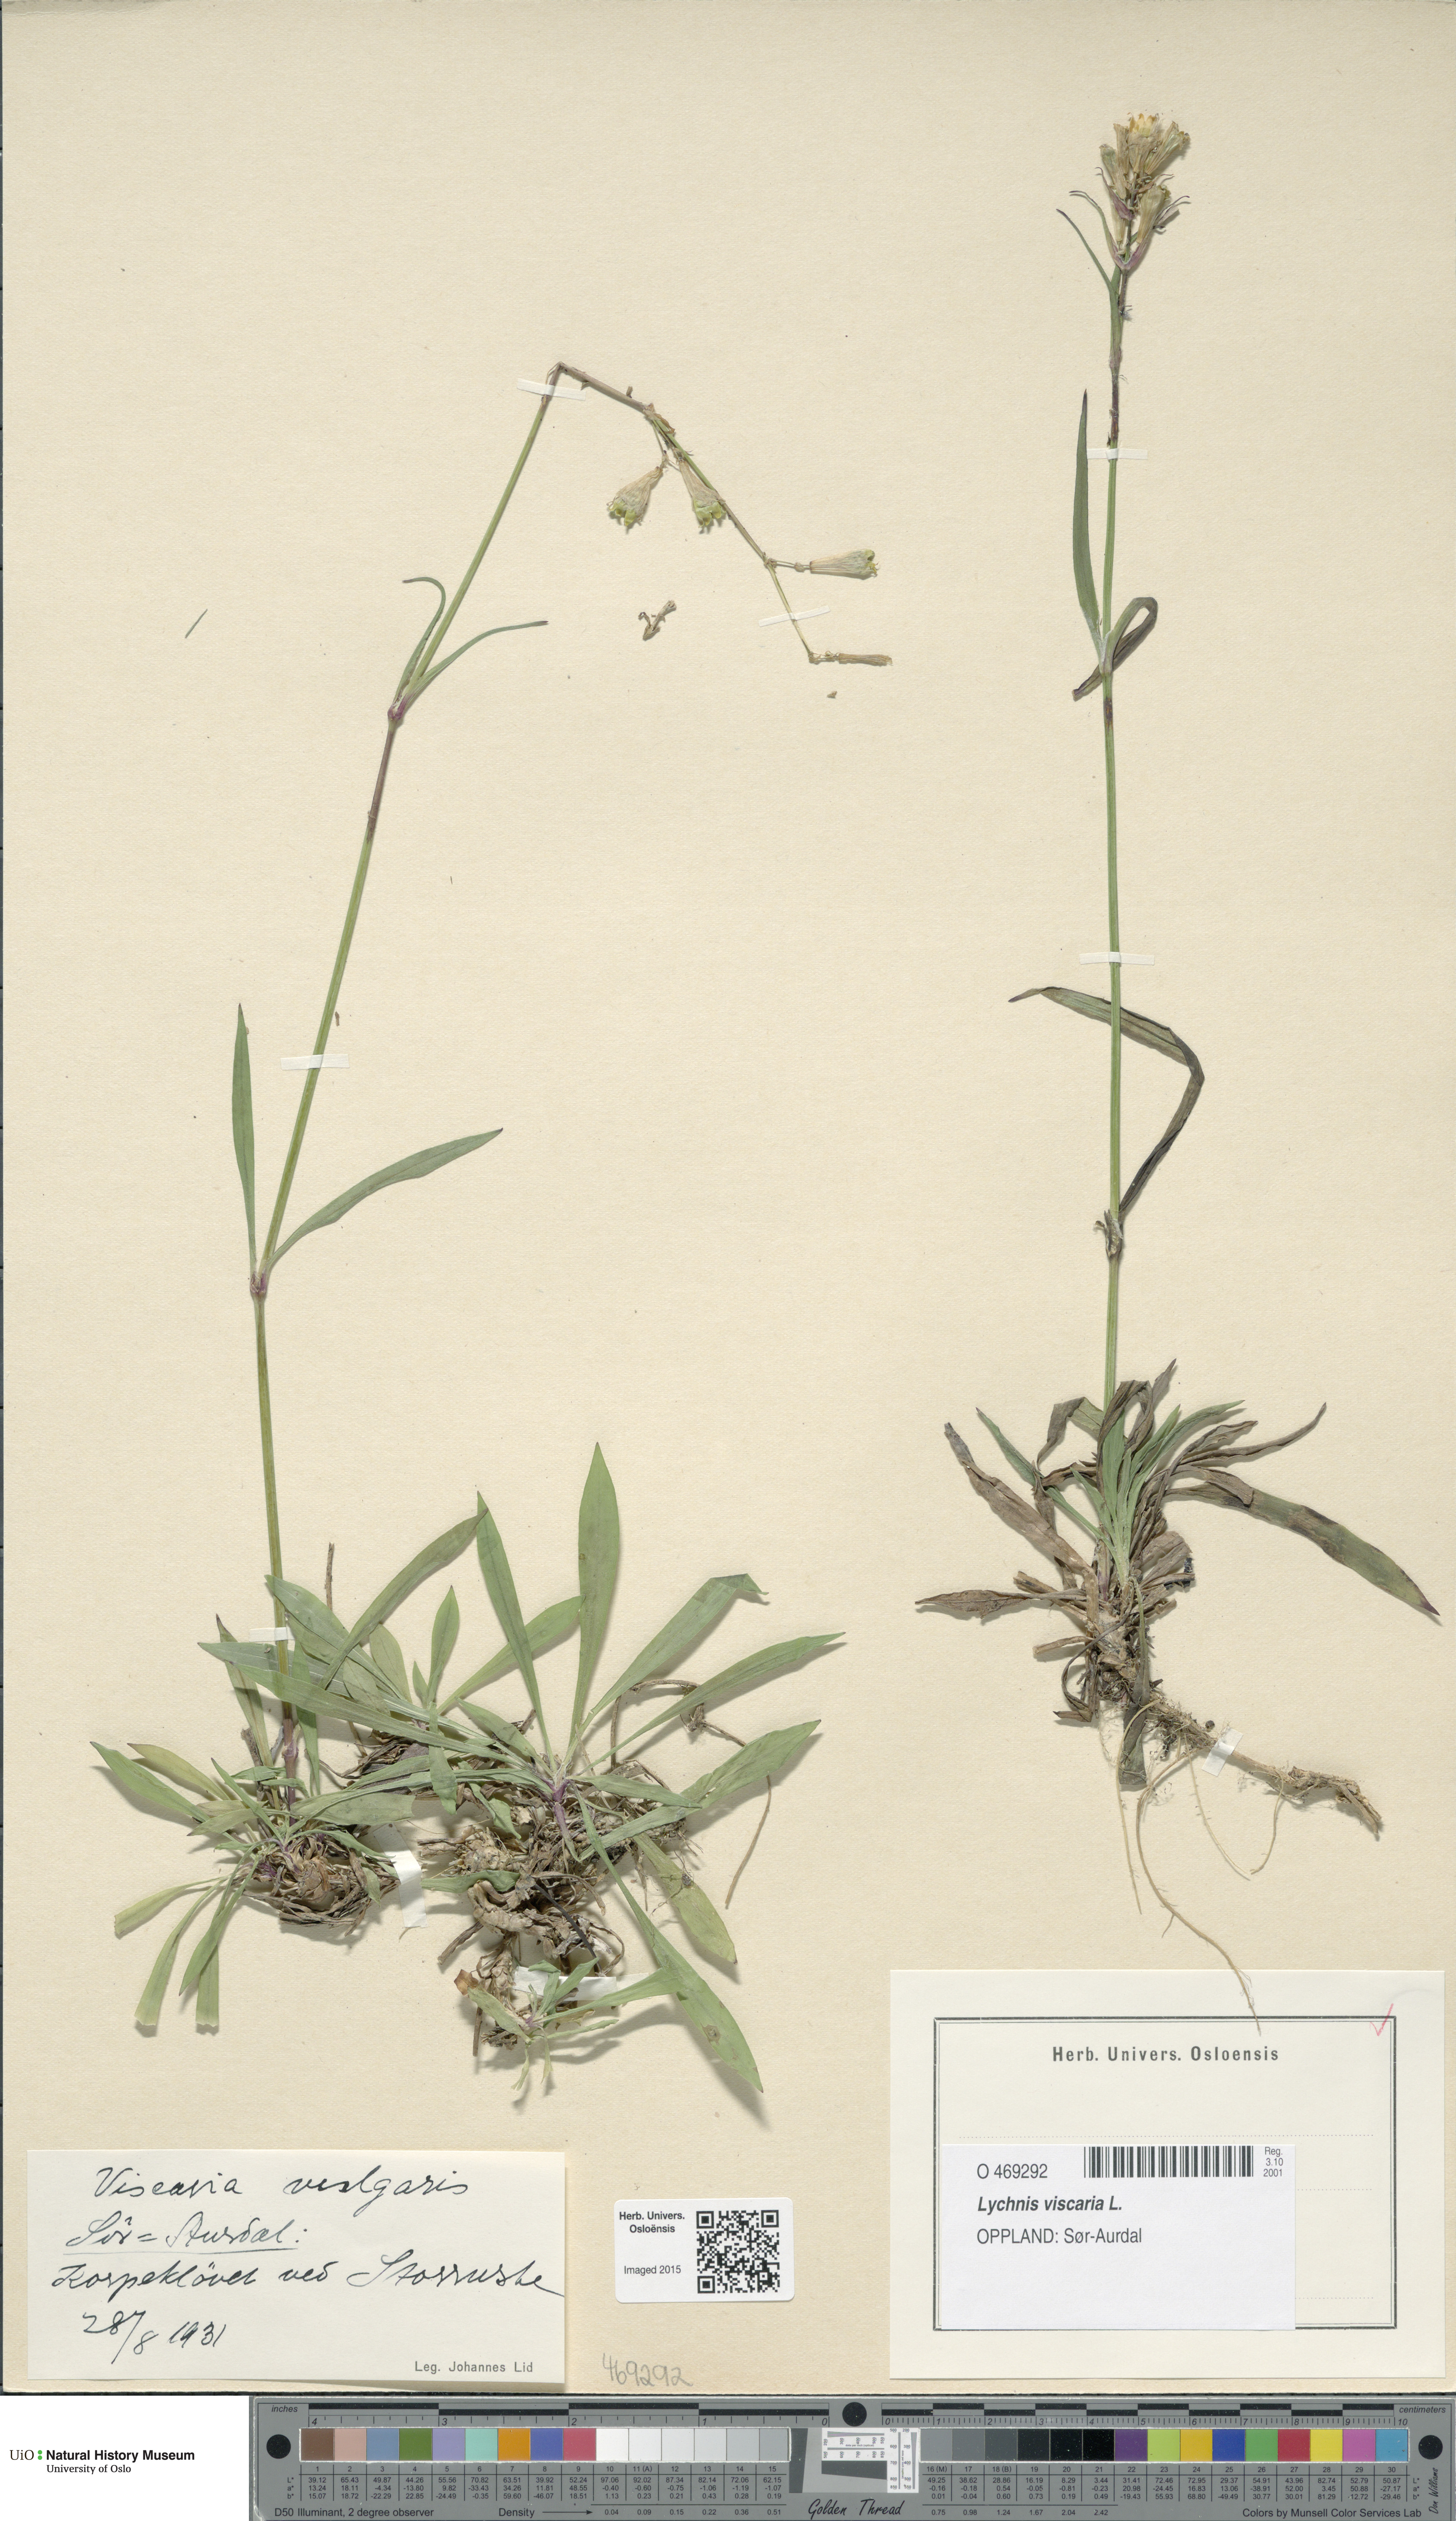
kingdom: Plantae
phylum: Tracheophyta
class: Magnoliopsida
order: Caryophyllales
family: Caryophyllaceae
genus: Viscaria
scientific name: Viscaria vulgaris
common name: Clammy campion
